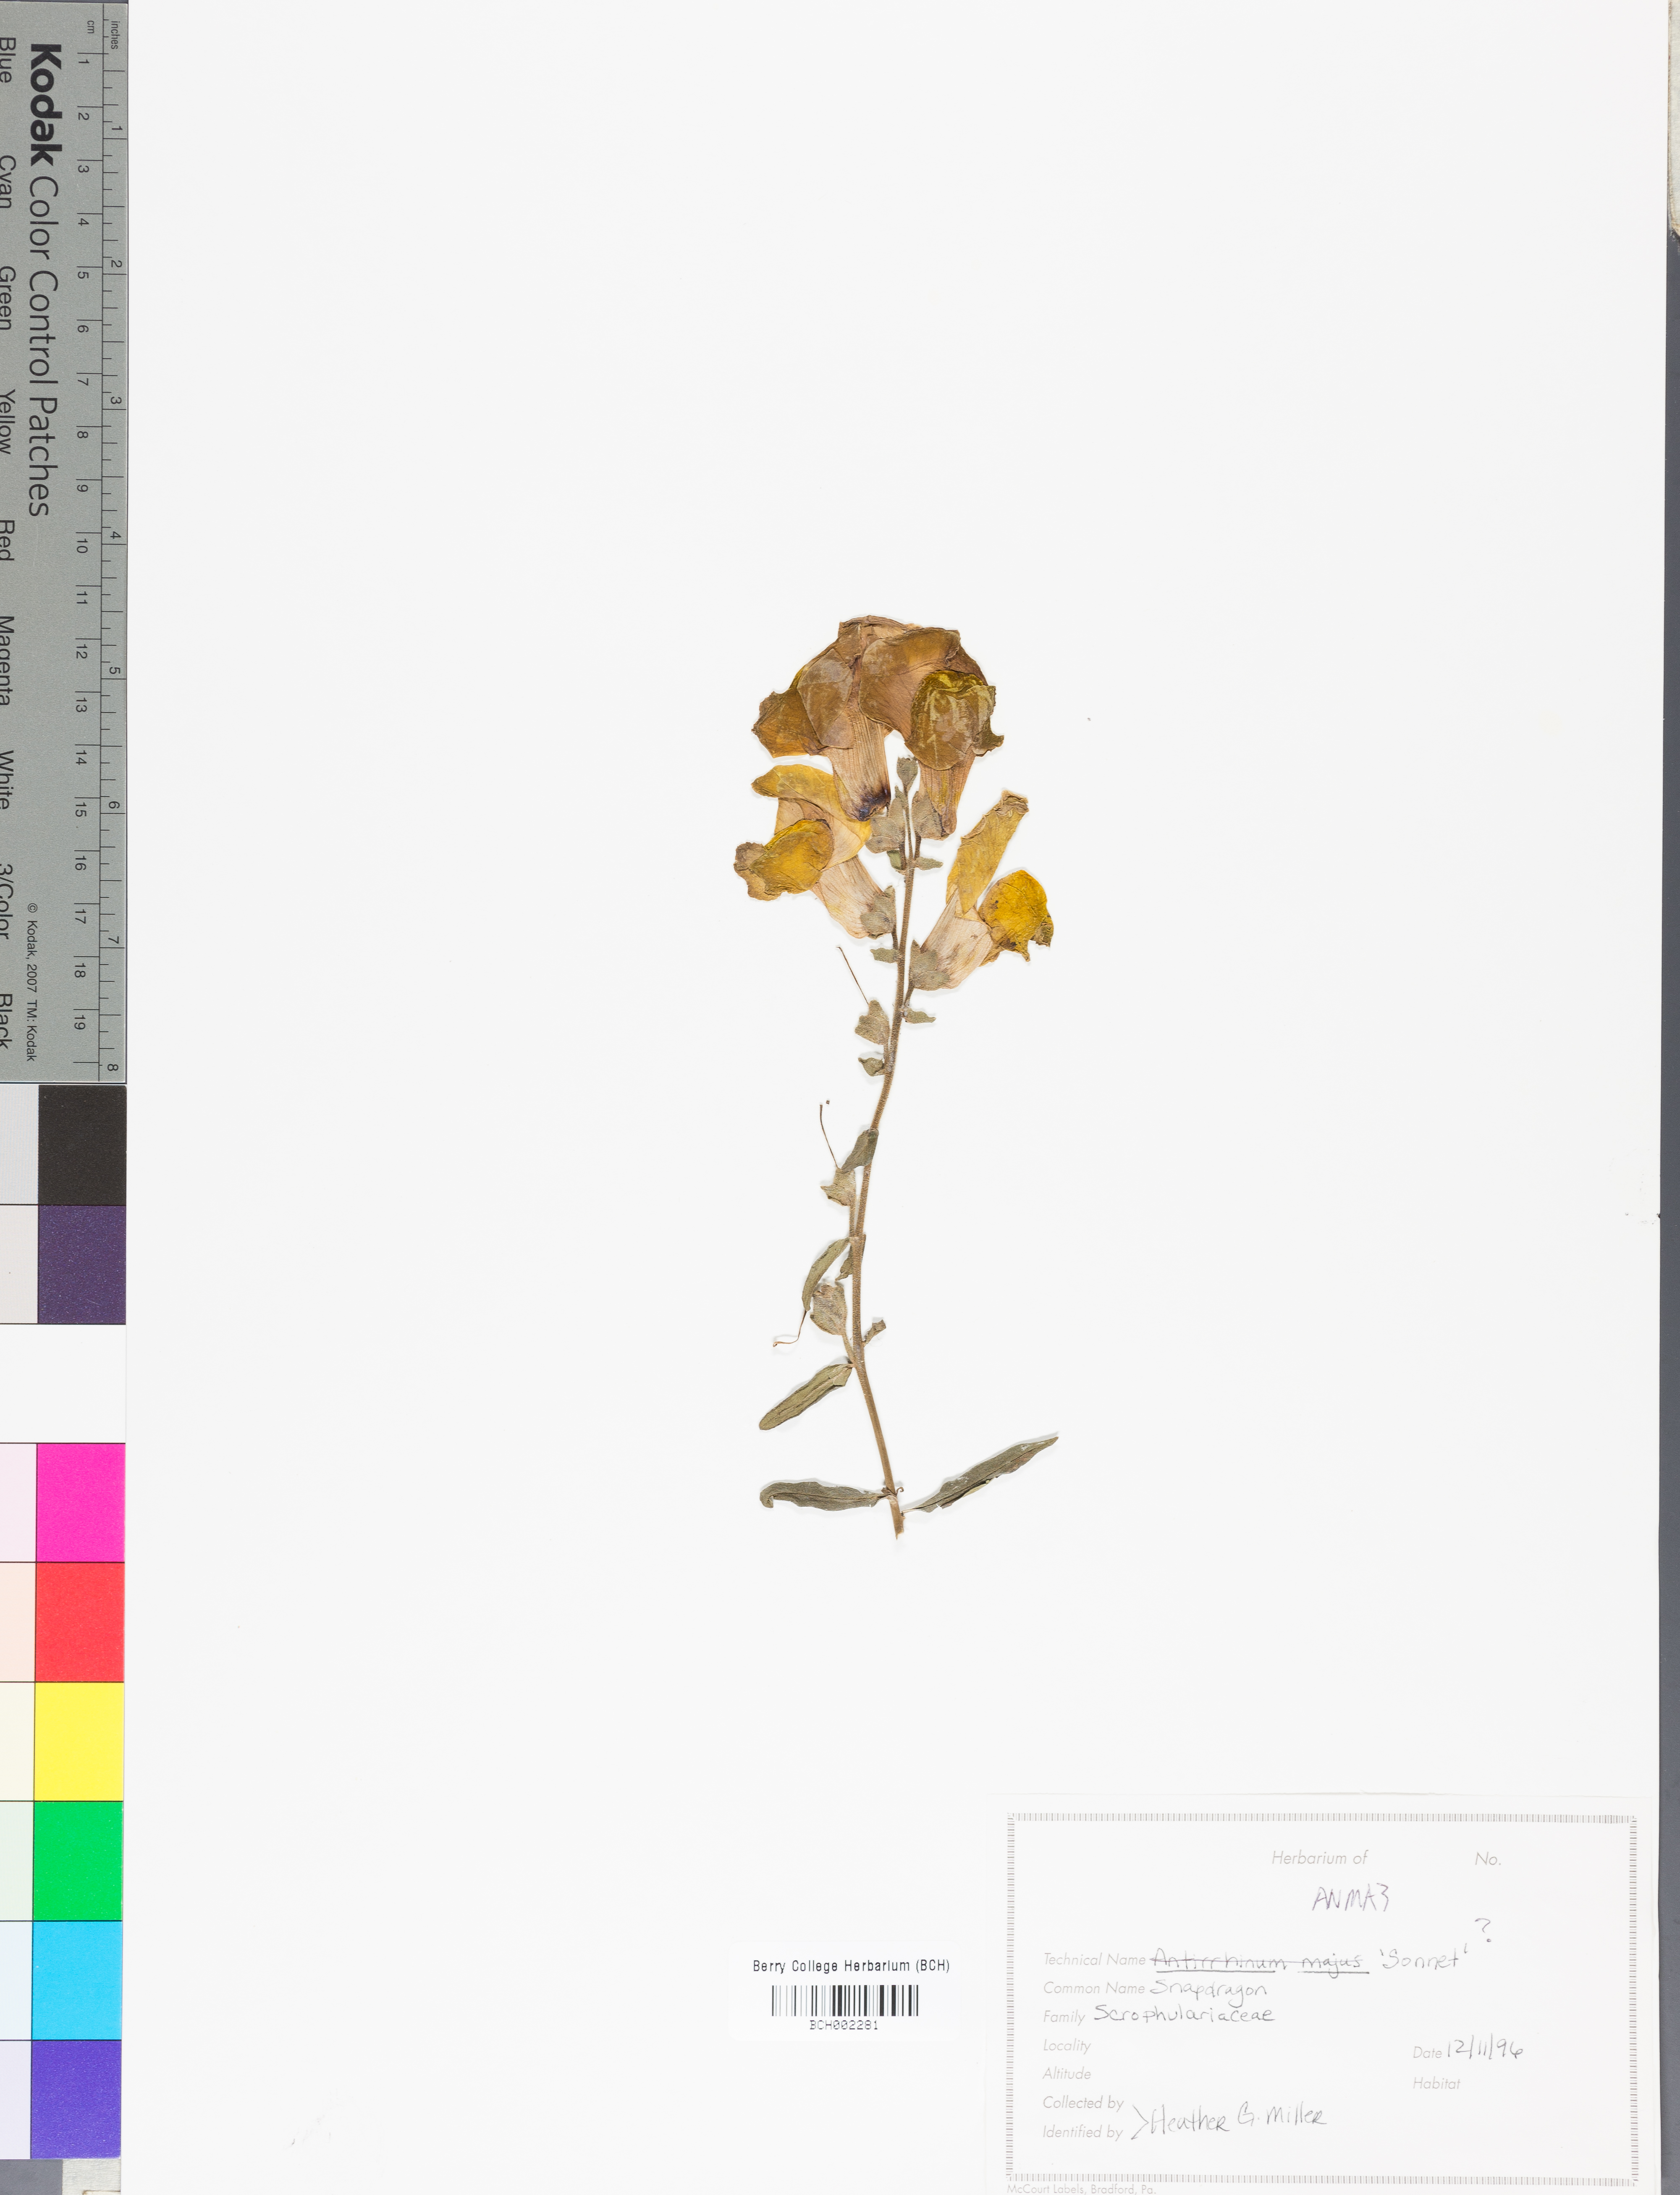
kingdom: Plantae
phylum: Tracheophyta
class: Magnoliopsida
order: Lamiales
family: Plantaginaceae
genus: Antirrhinum
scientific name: Antirrhinum majus
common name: Snapdragon
